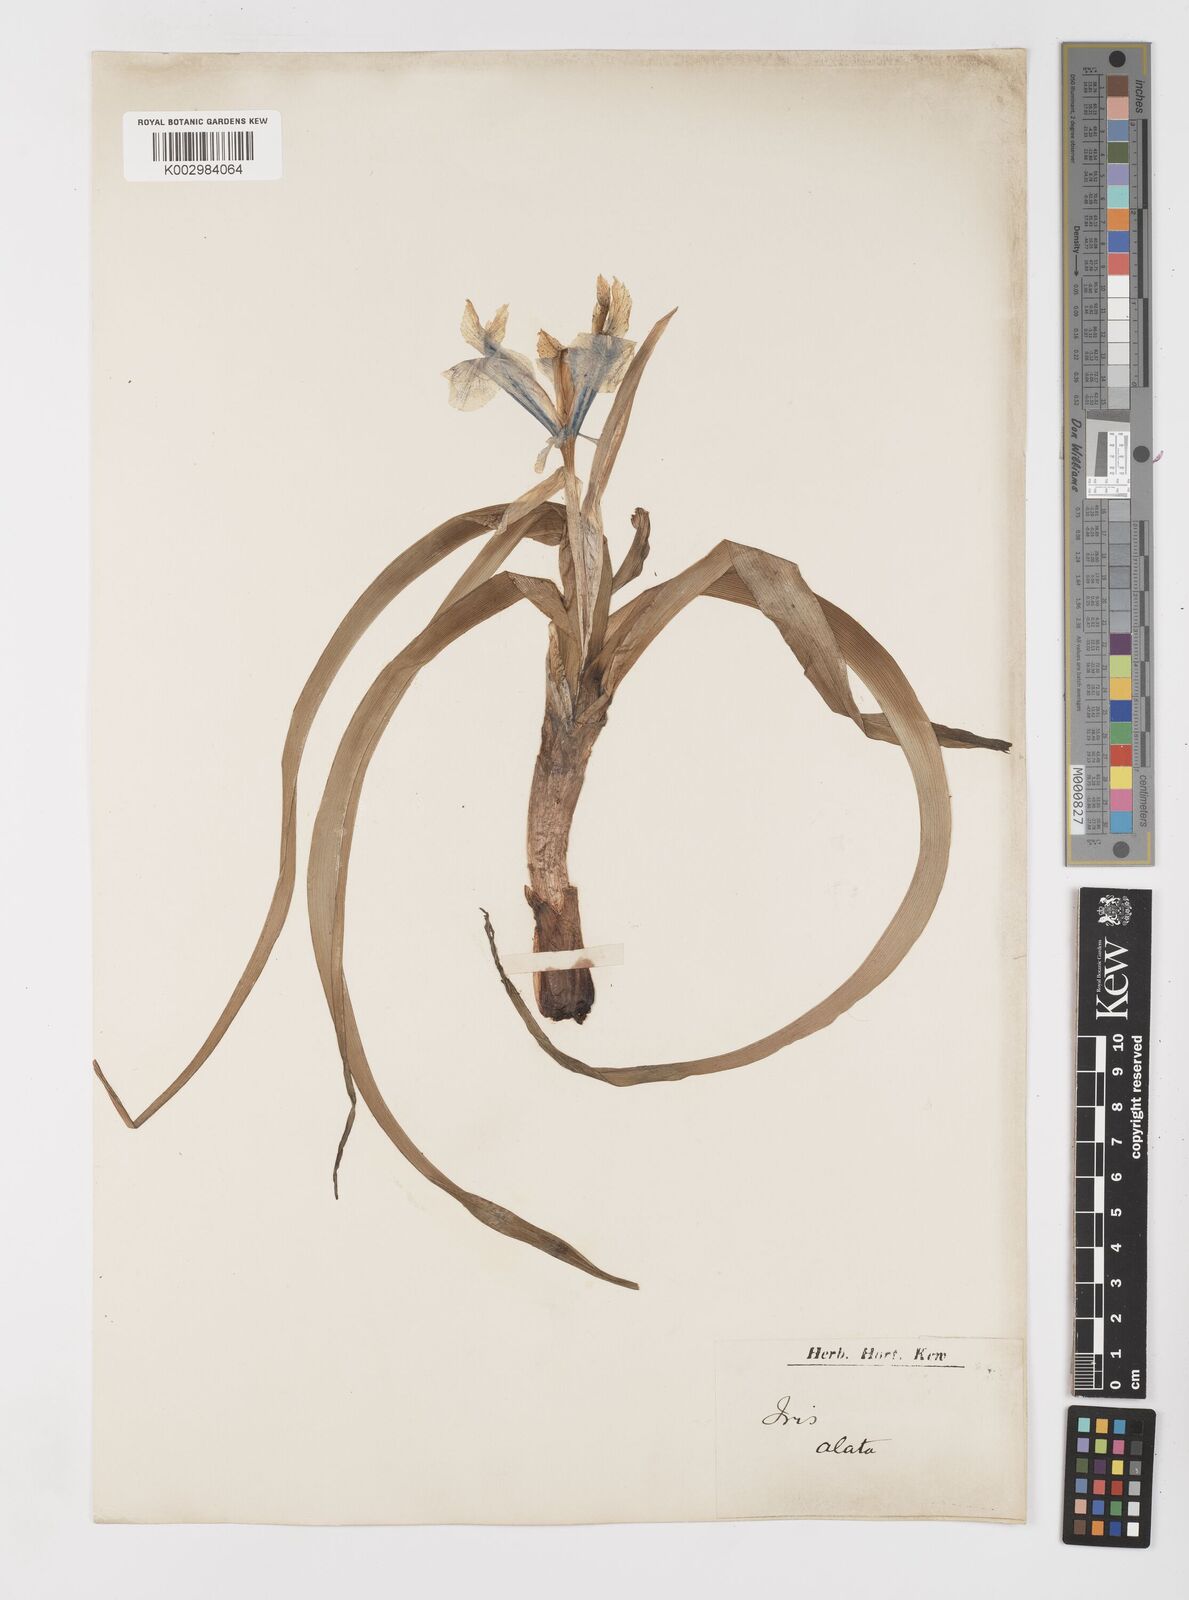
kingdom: Plantae
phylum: Tracheophyta
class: Liliopsida
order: Asparagales
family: Iridaceae
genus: Iris
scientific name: Iris planifolia
